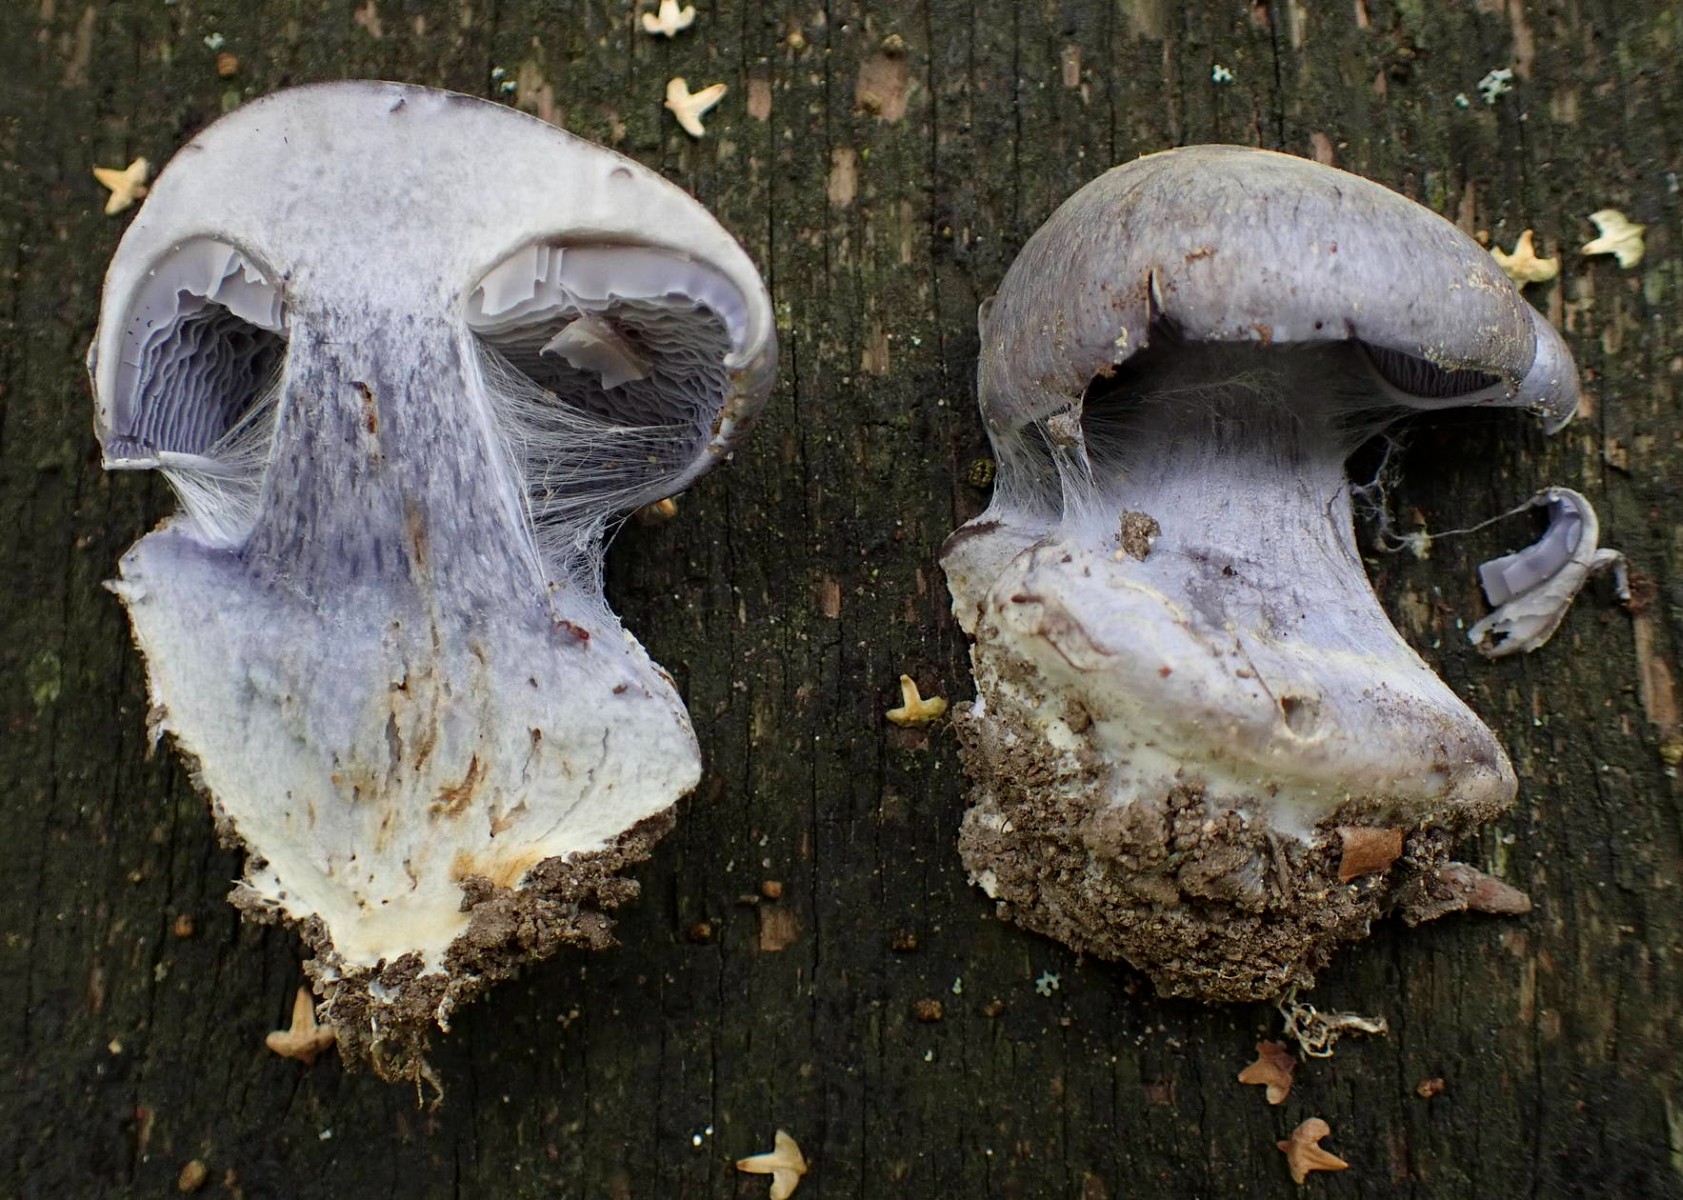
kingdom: Fungi
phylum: Basidiomycota
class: Agaricomycetes
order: Agaricales
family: Cortinariaceae
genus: Cortinarius
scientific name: Cortinarius caerulescens
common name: blåkødet slørhat
